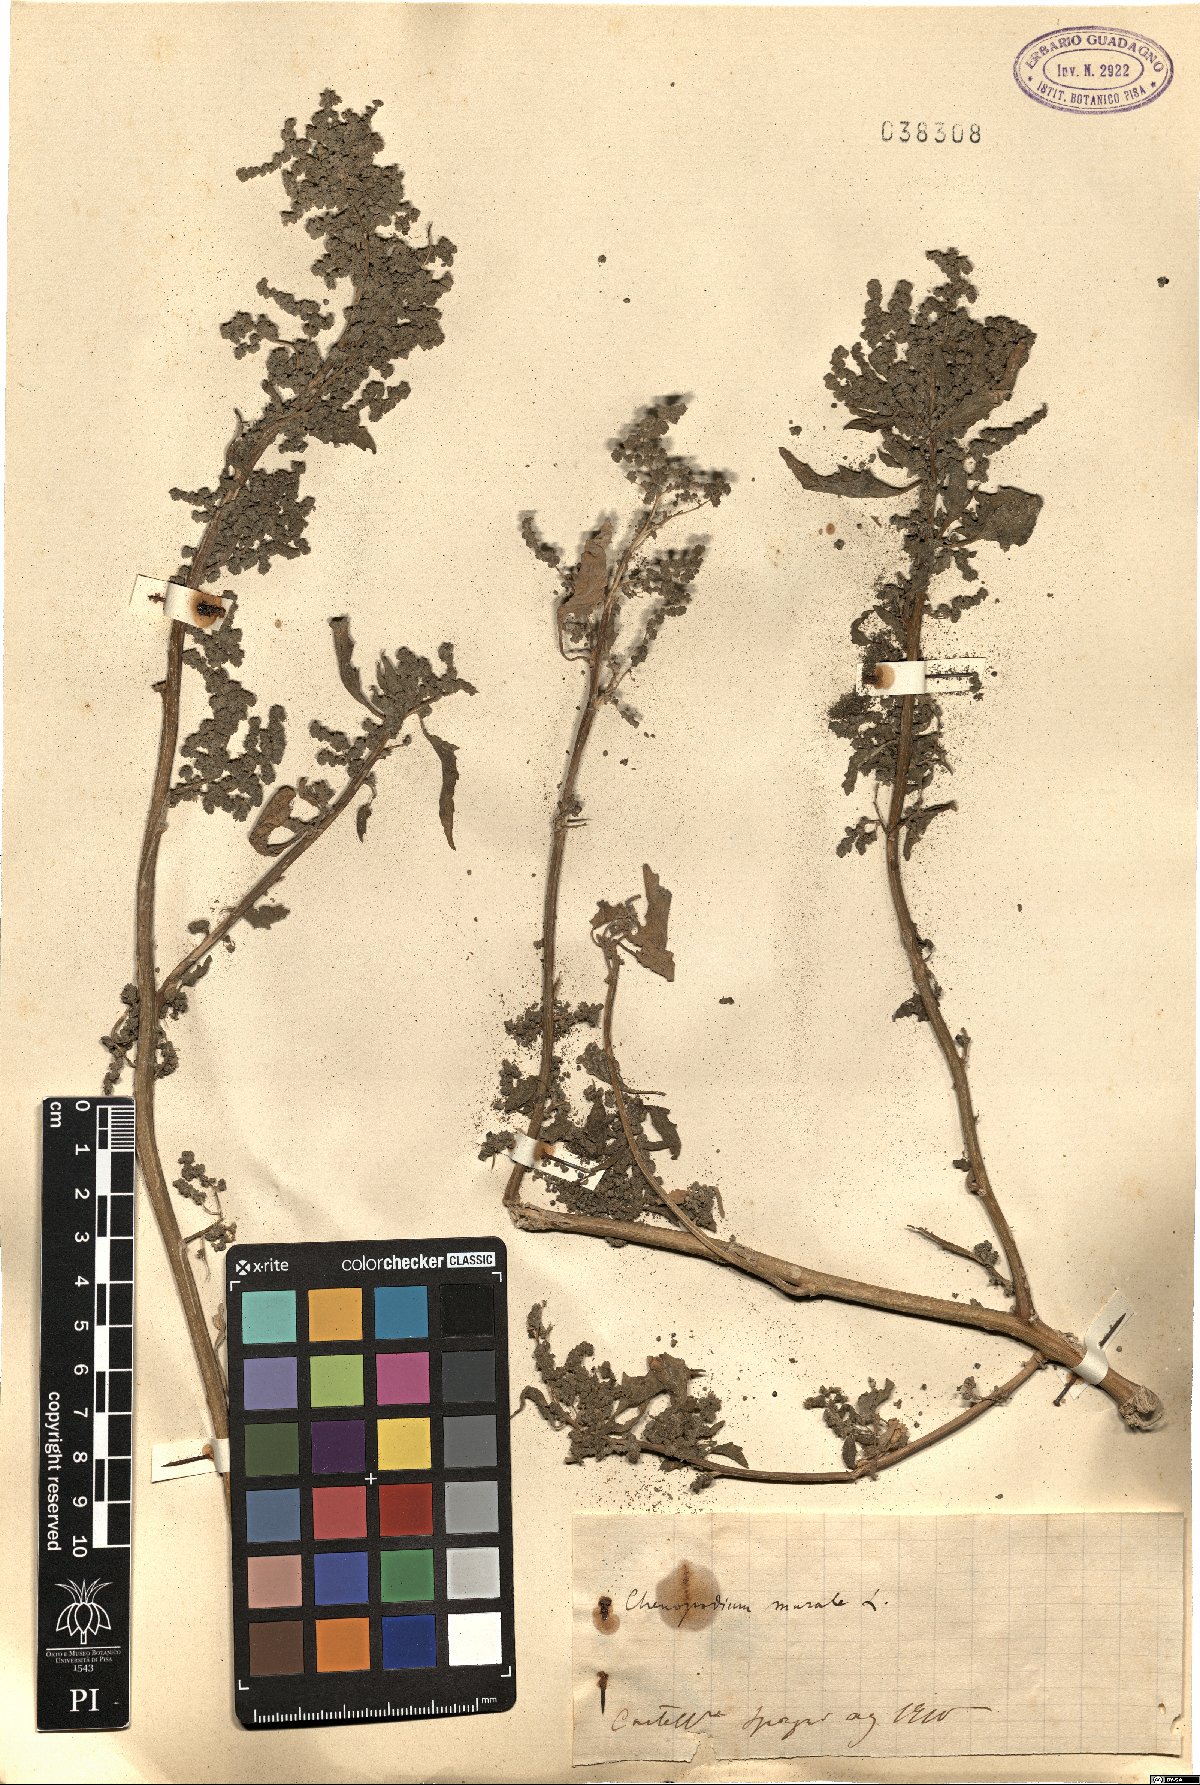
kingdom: Plantae
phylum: Tracheophyta
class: Magnoliopsida
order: Caryophyllales
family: Amaranthaceae
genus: Chenopodiastrum
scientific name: Chenopodiastrum murale
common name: Sowbane
